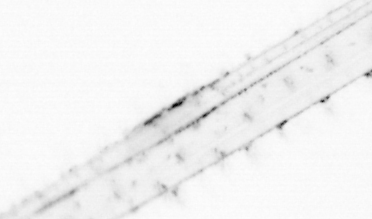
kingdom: Animalia
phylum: Chaetognatha
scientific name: Chaetognatha
